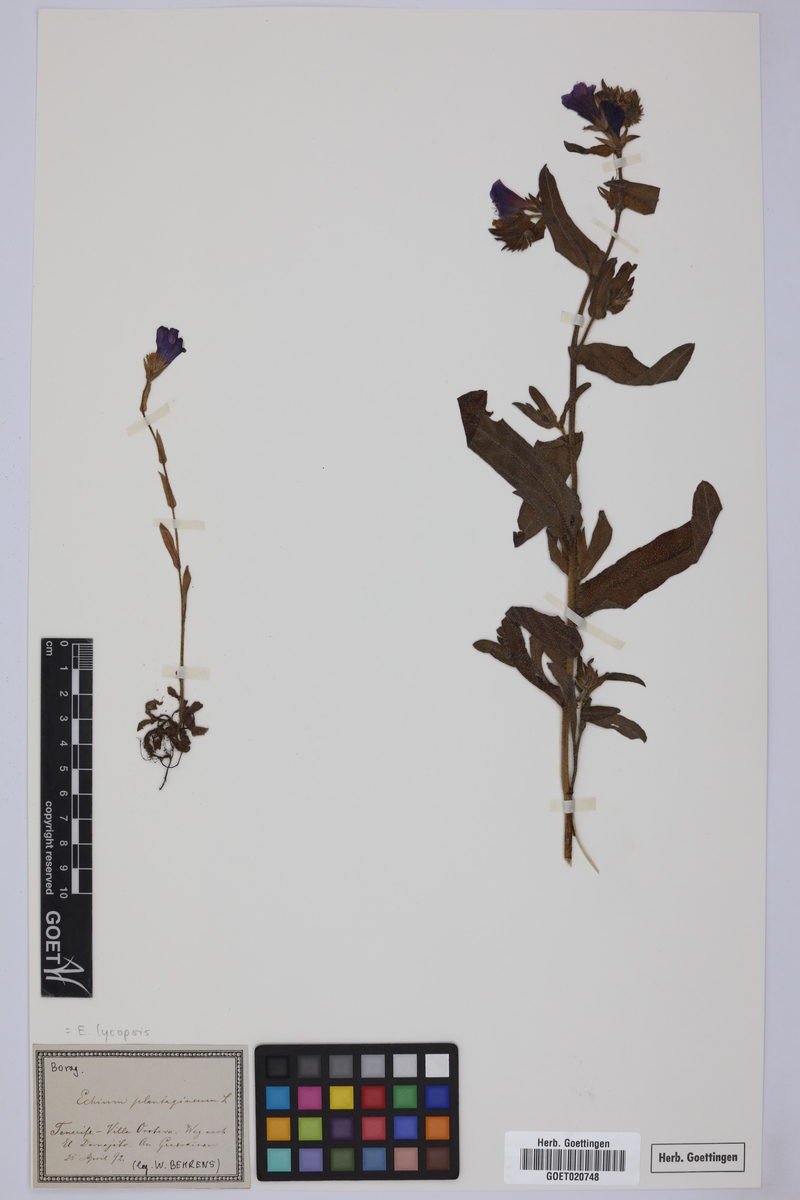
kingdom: Plantae
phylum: Tracheophyta
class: Magnoliopsida
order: Boraginales
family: Boraginaceae
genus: Echium
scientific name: Echium plantagineum
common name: Purple viper's-bugloss
